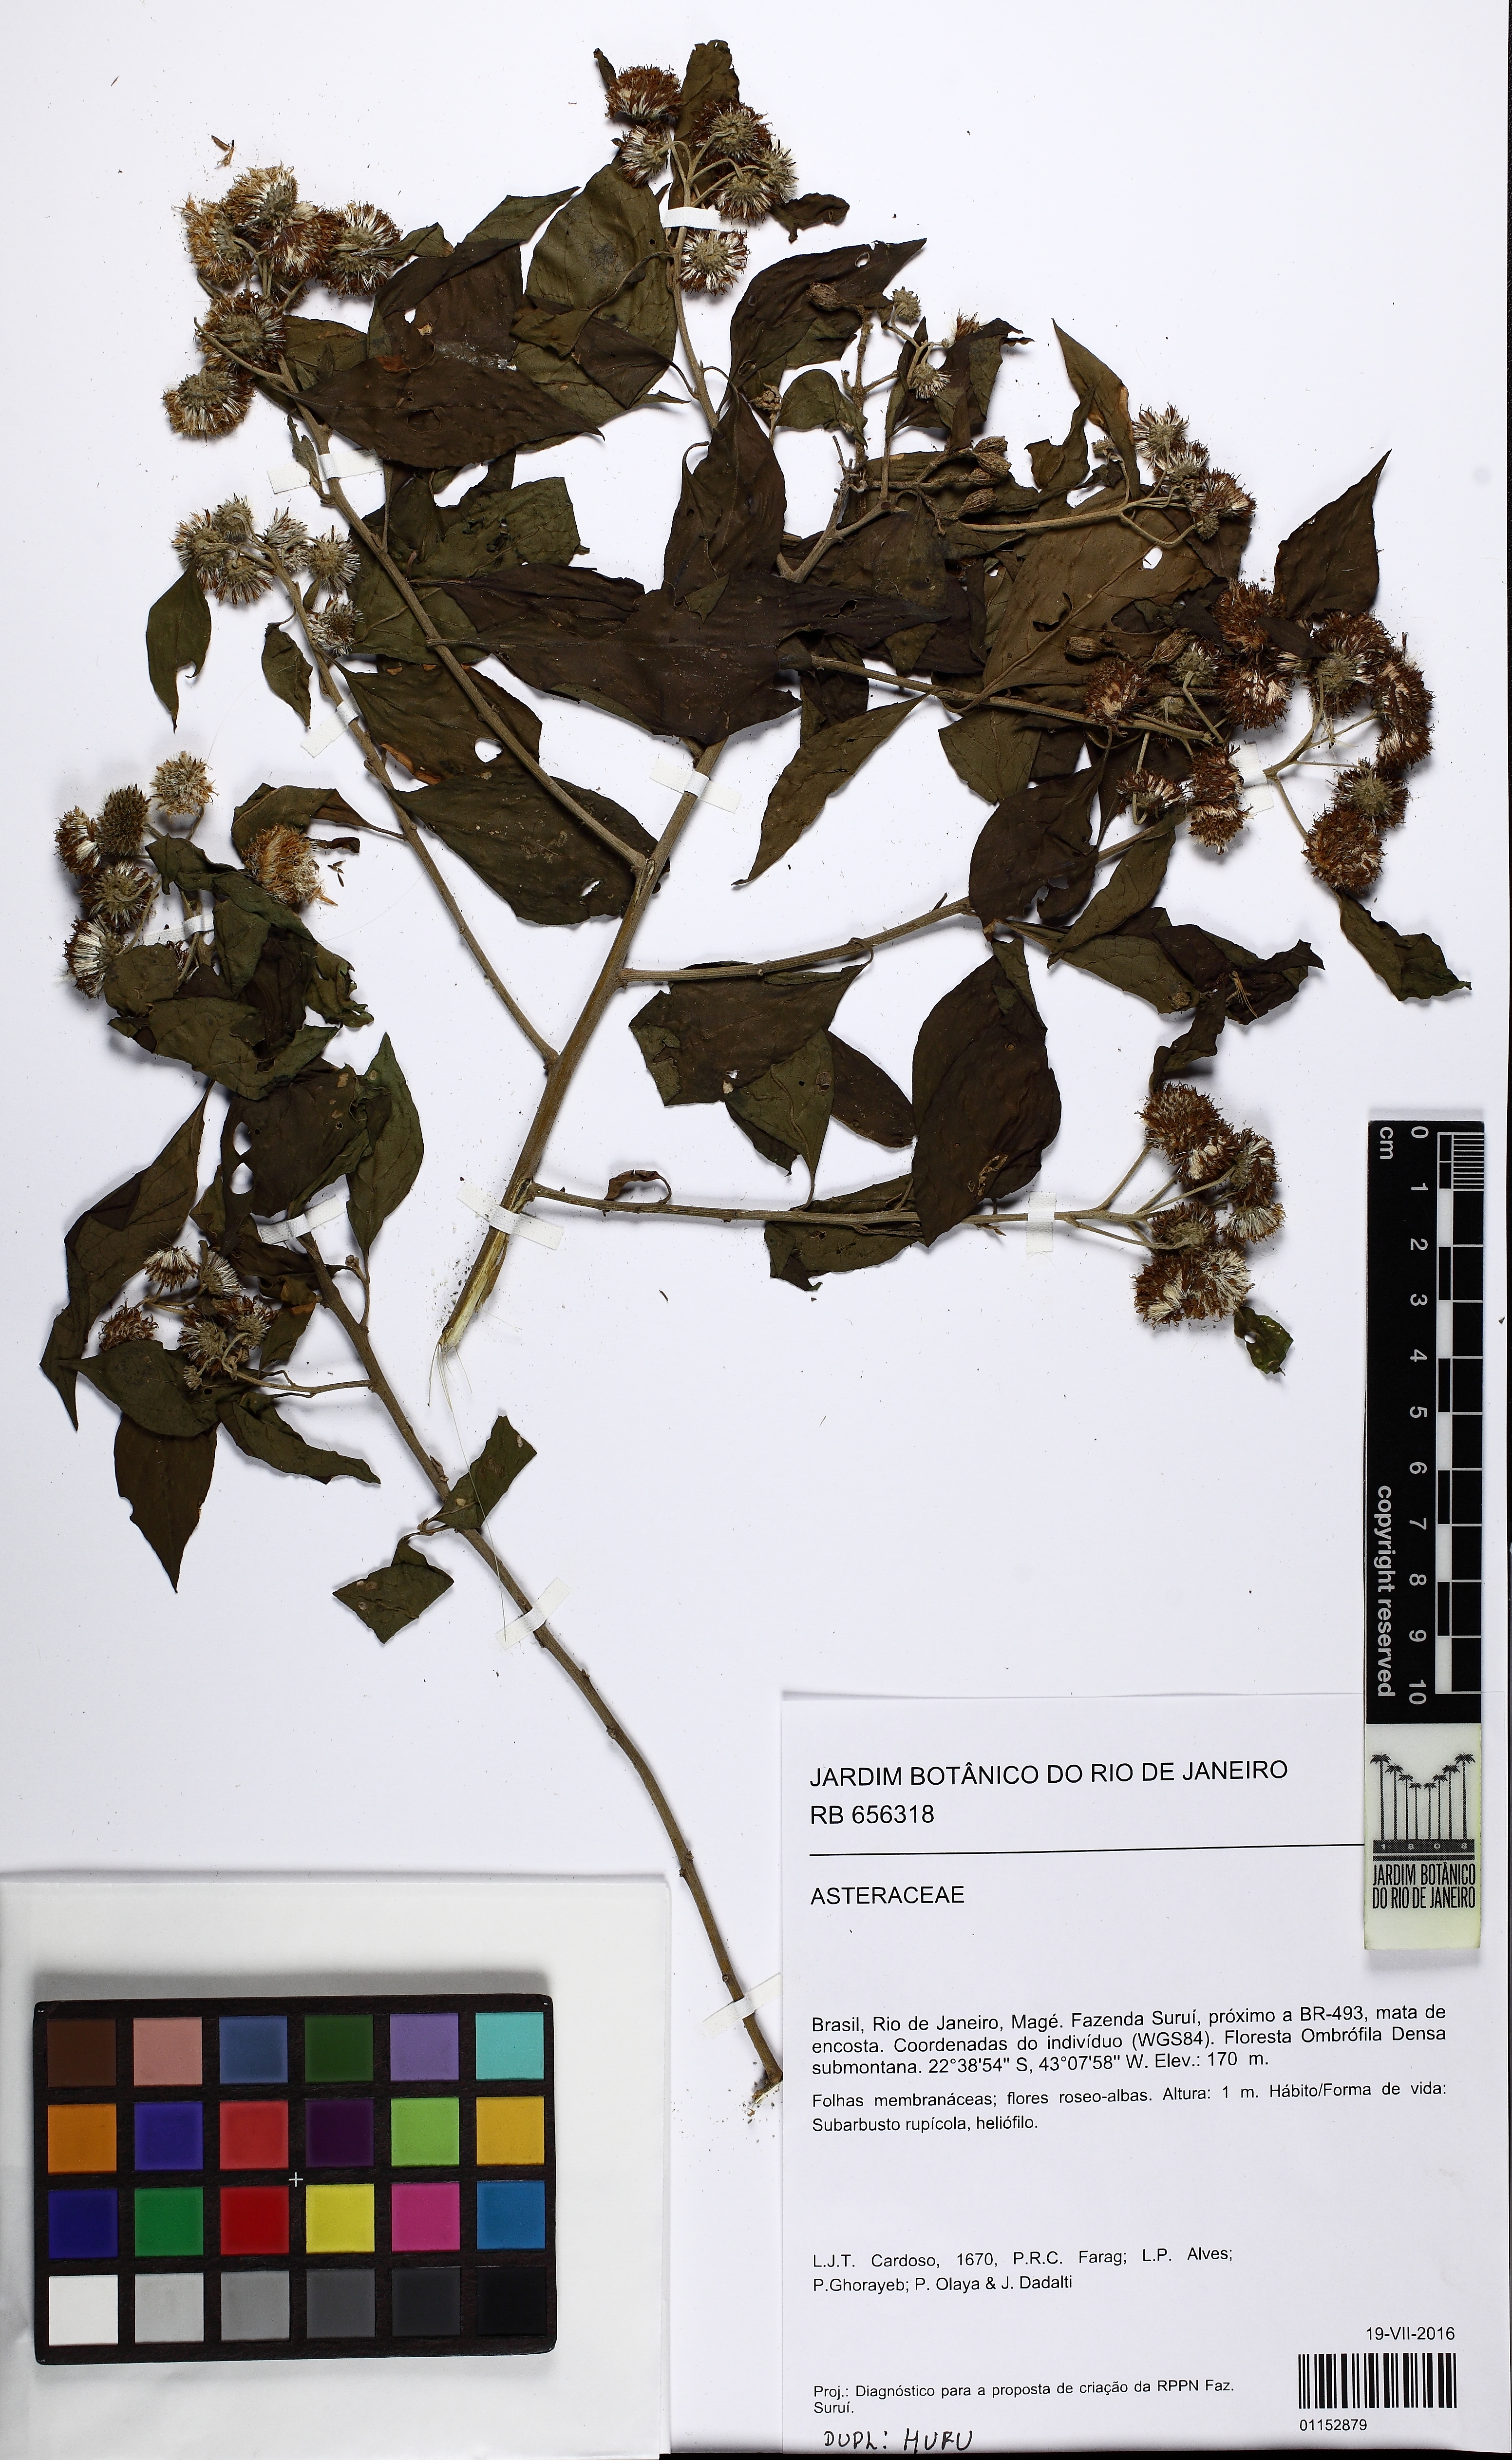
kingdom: Plantae
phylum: Tracheophyta
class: Magnoliopsida
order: Asterales
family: Asteraceae
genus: Albertinia
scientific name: Albertinia
